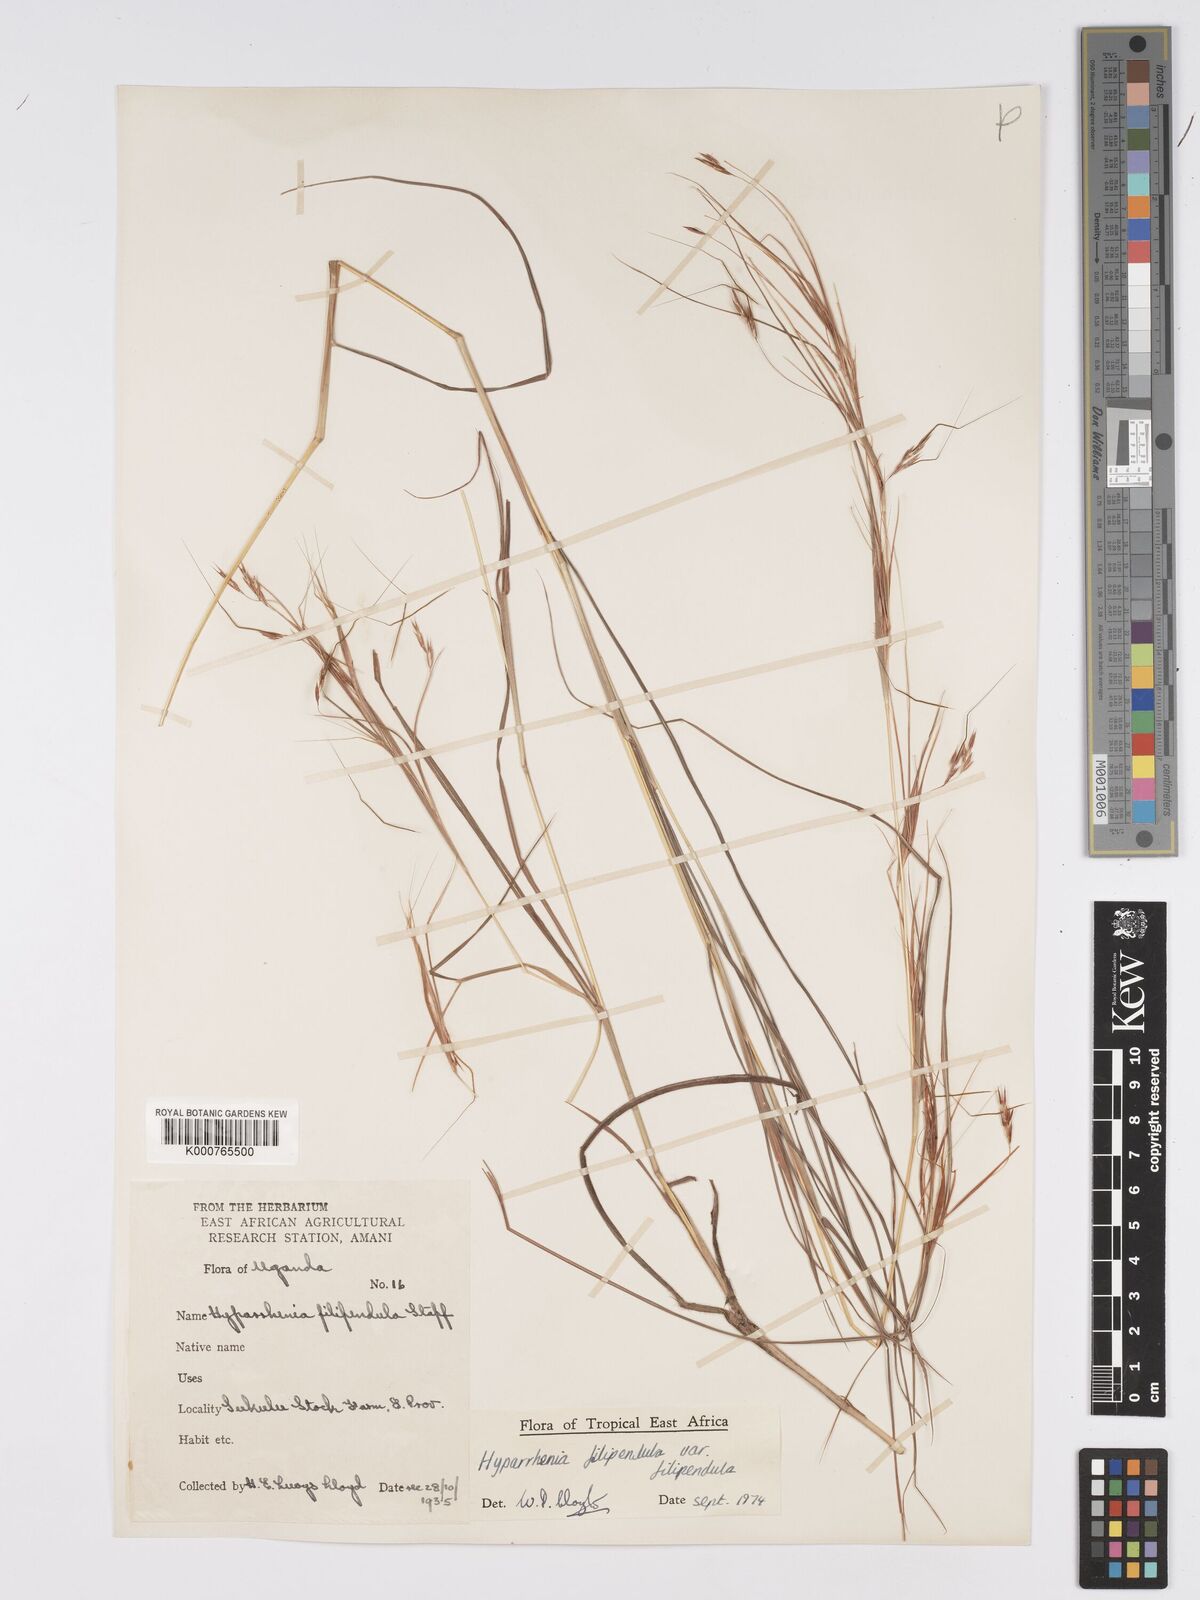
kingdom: Plantae
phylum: Tracheophyta
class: Liliopsida
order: Poales
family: Poaceae
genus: Hyparrhenia
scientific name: Hyparrhenia filipendula
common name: Tambookie grass
